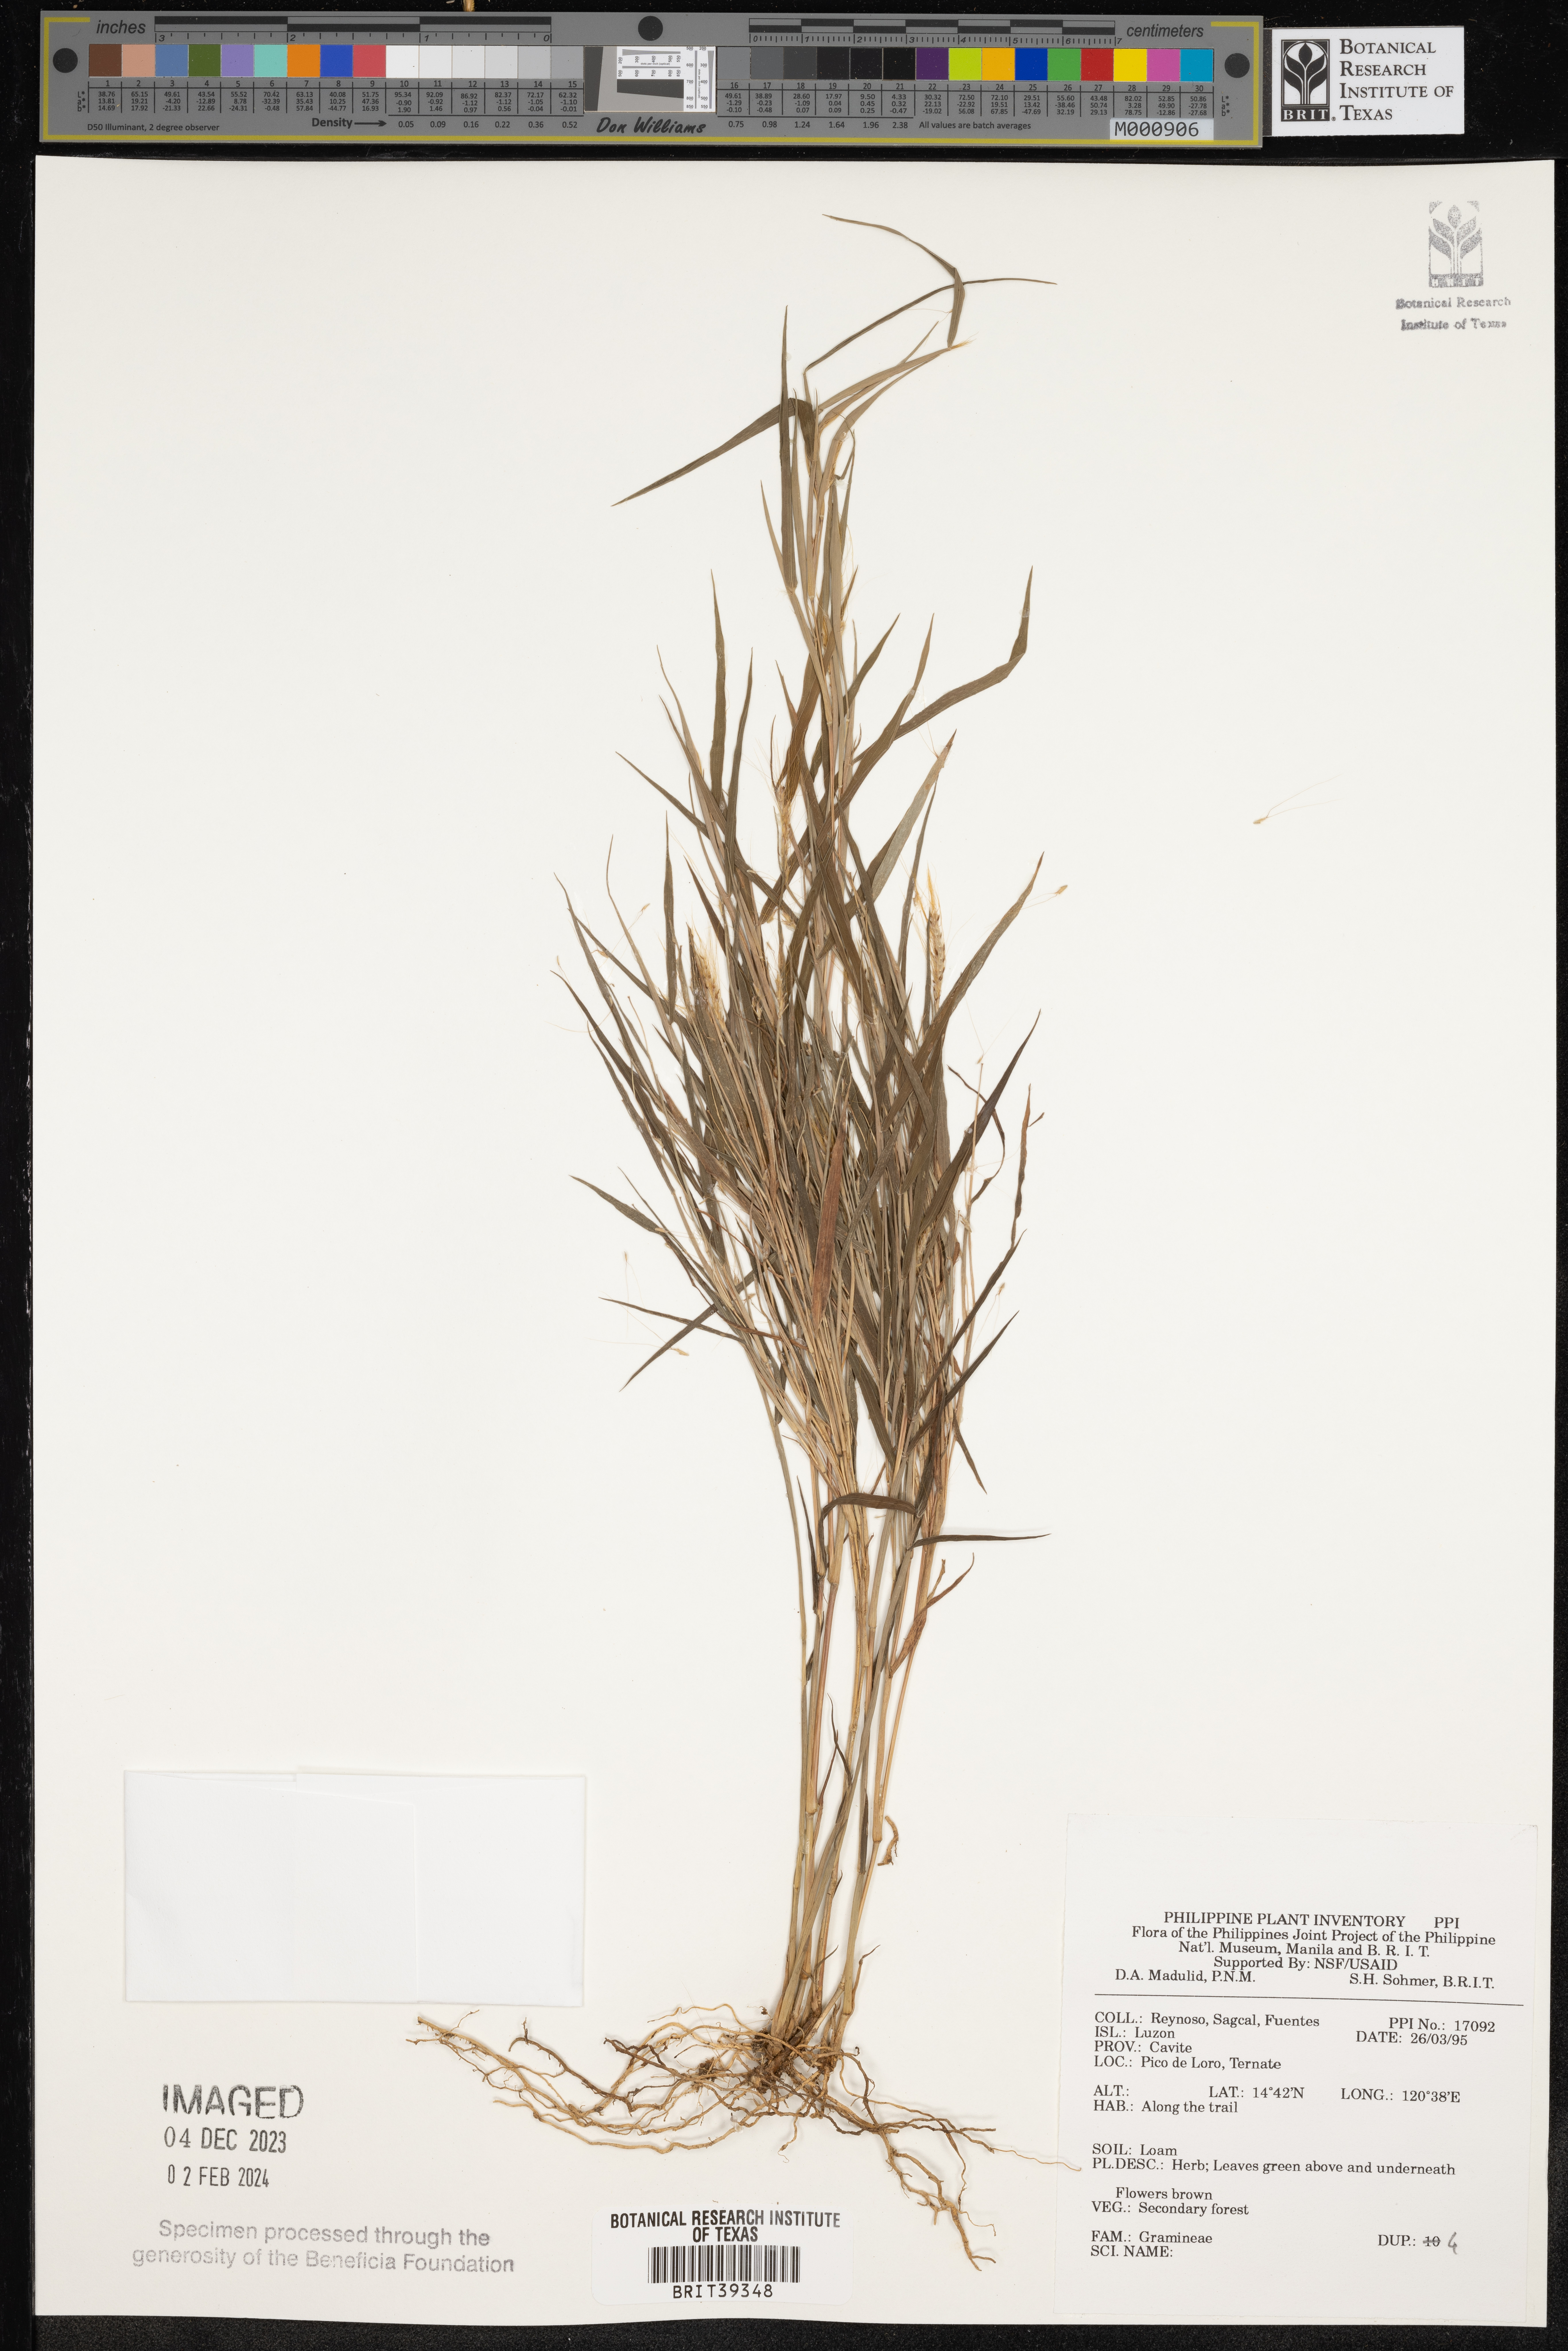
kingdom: Plantae
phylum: Tracheophyta
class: Liliopsida
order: Poales
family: Poaceae
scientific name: Poaceae
